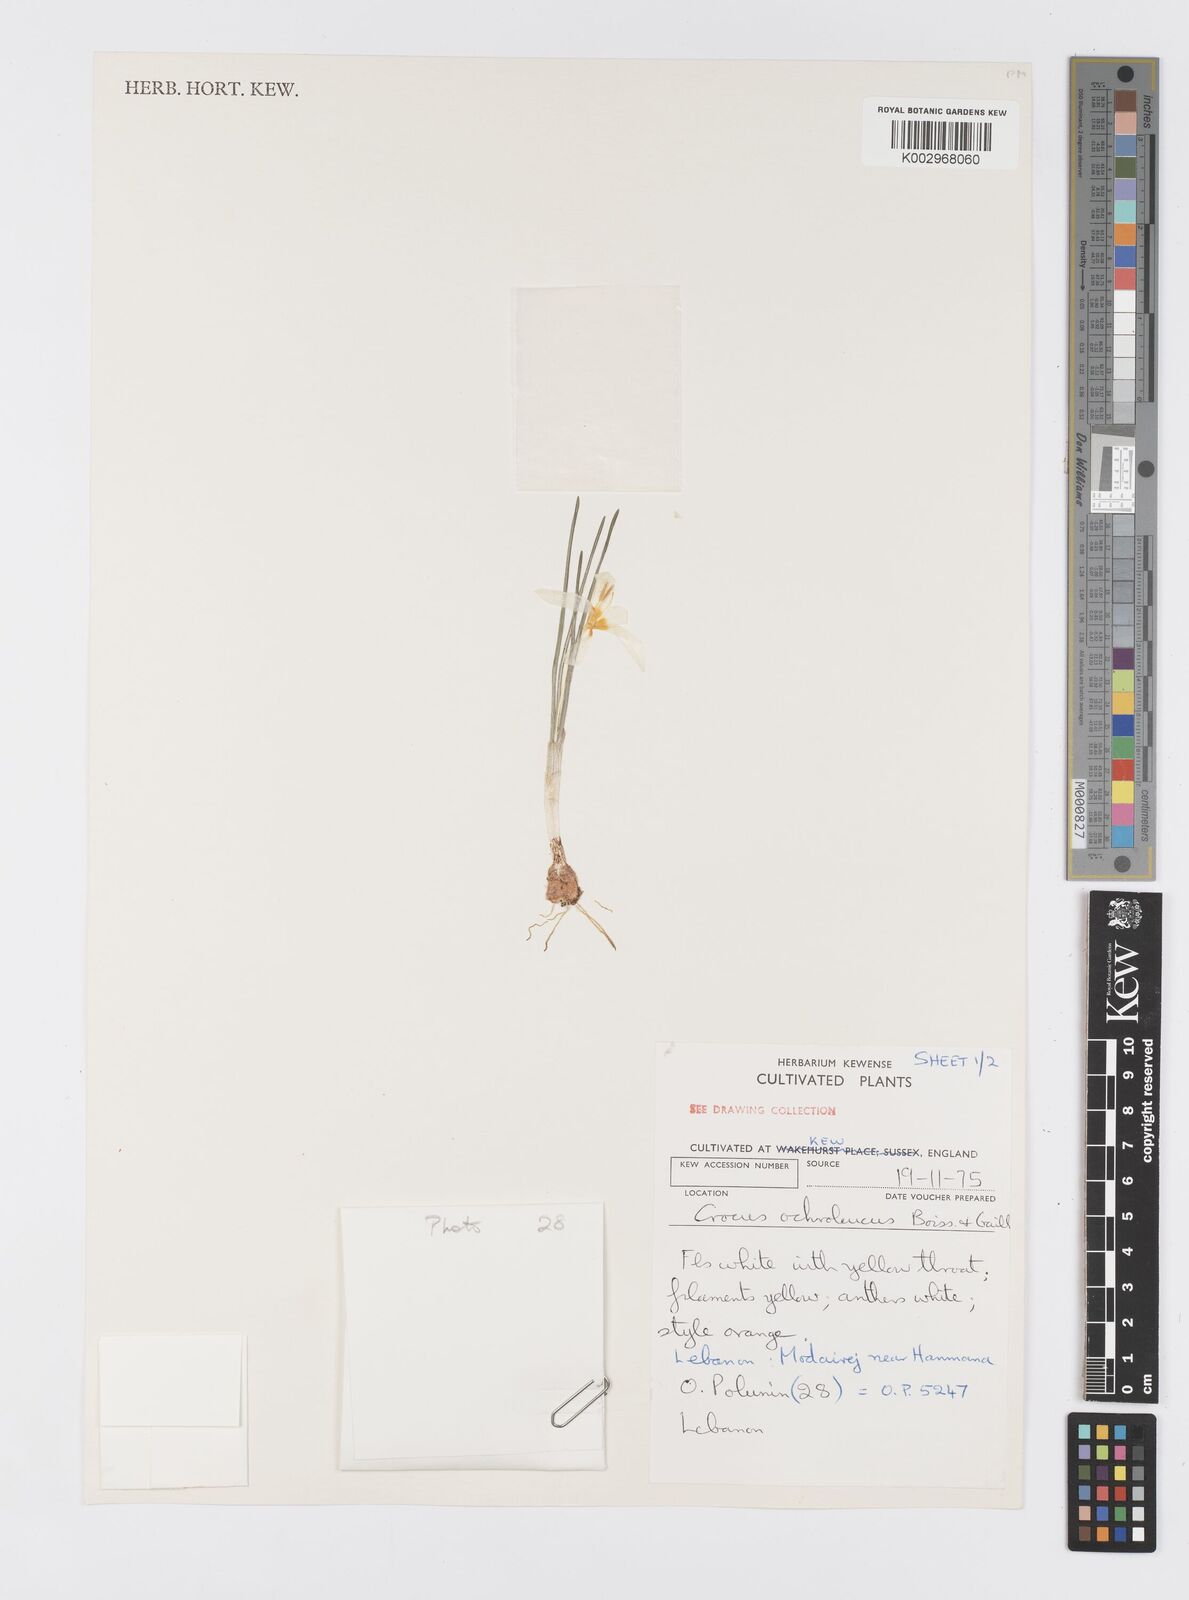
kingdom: Plantae
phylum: Tracheophyta
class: Liliopsida
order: Asparagales
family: Iridaceae
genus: Crocus
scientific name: Crocus ochroleucus
